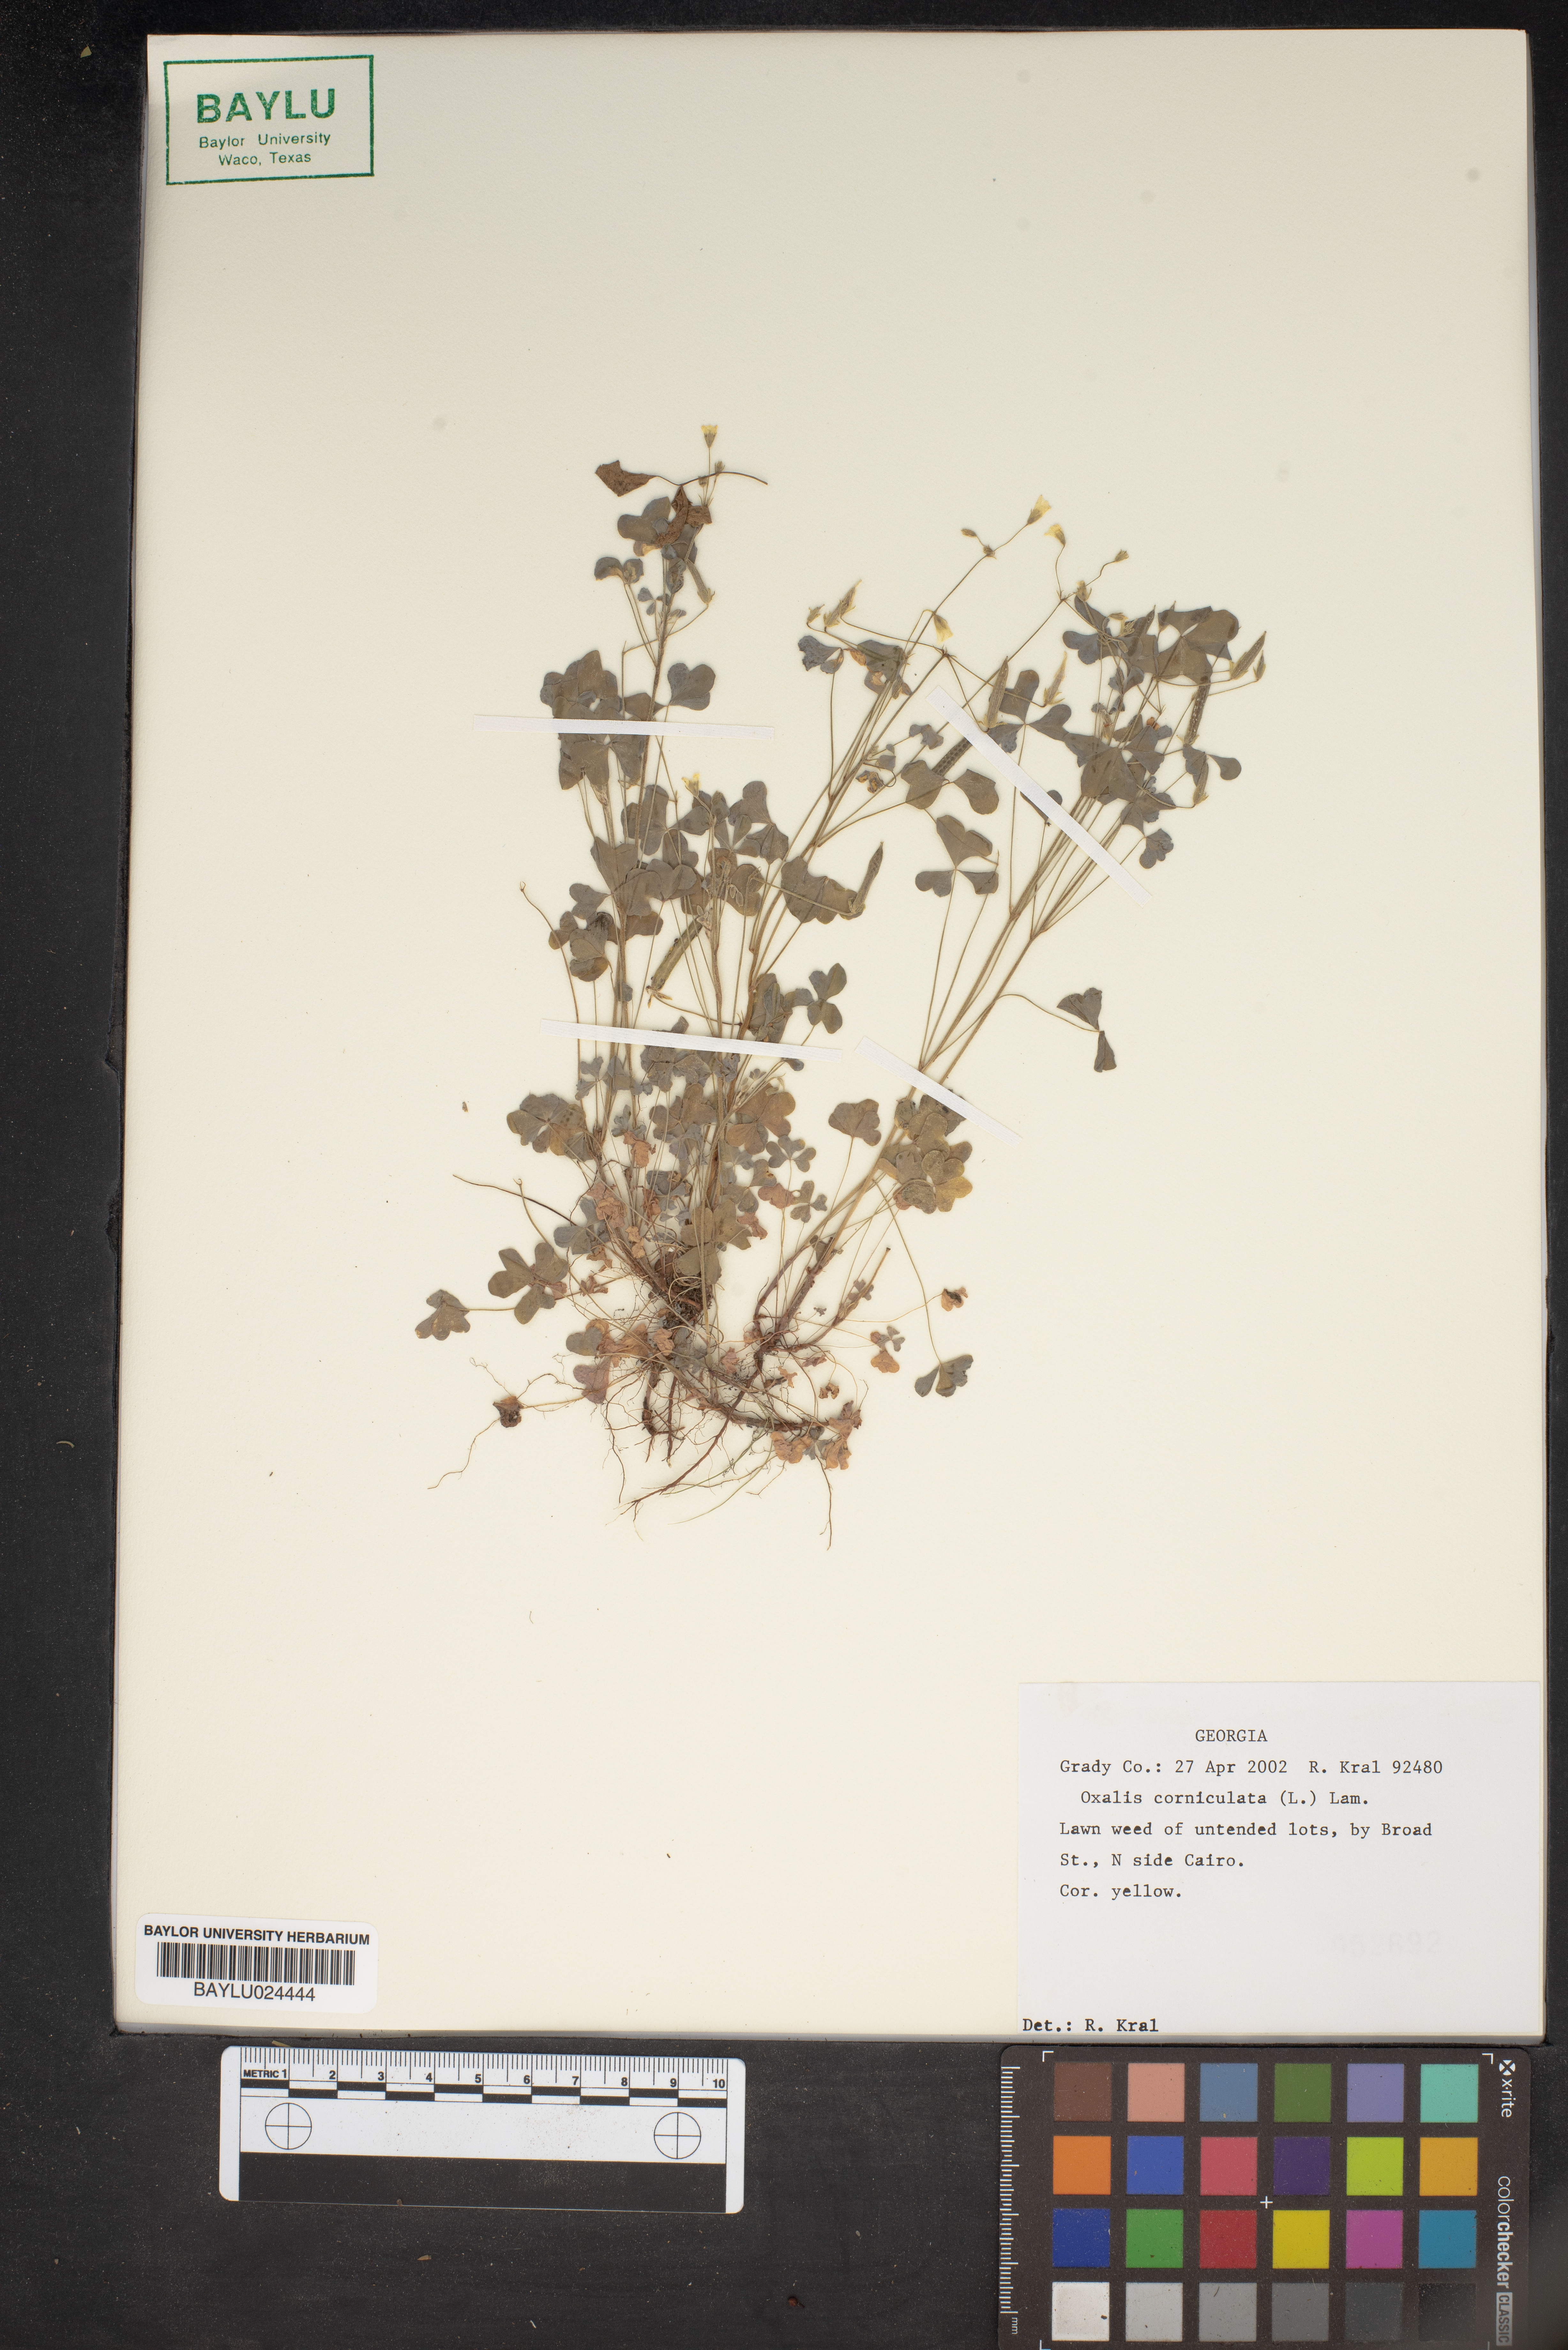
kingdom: Plantae
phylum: Tracheophyta
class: Magnoliopsida
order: Oxalidales
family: Oxalidaceae
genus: Oxalis
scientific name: Oxalis corniculata
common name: Procumbent yellow-sorrel
